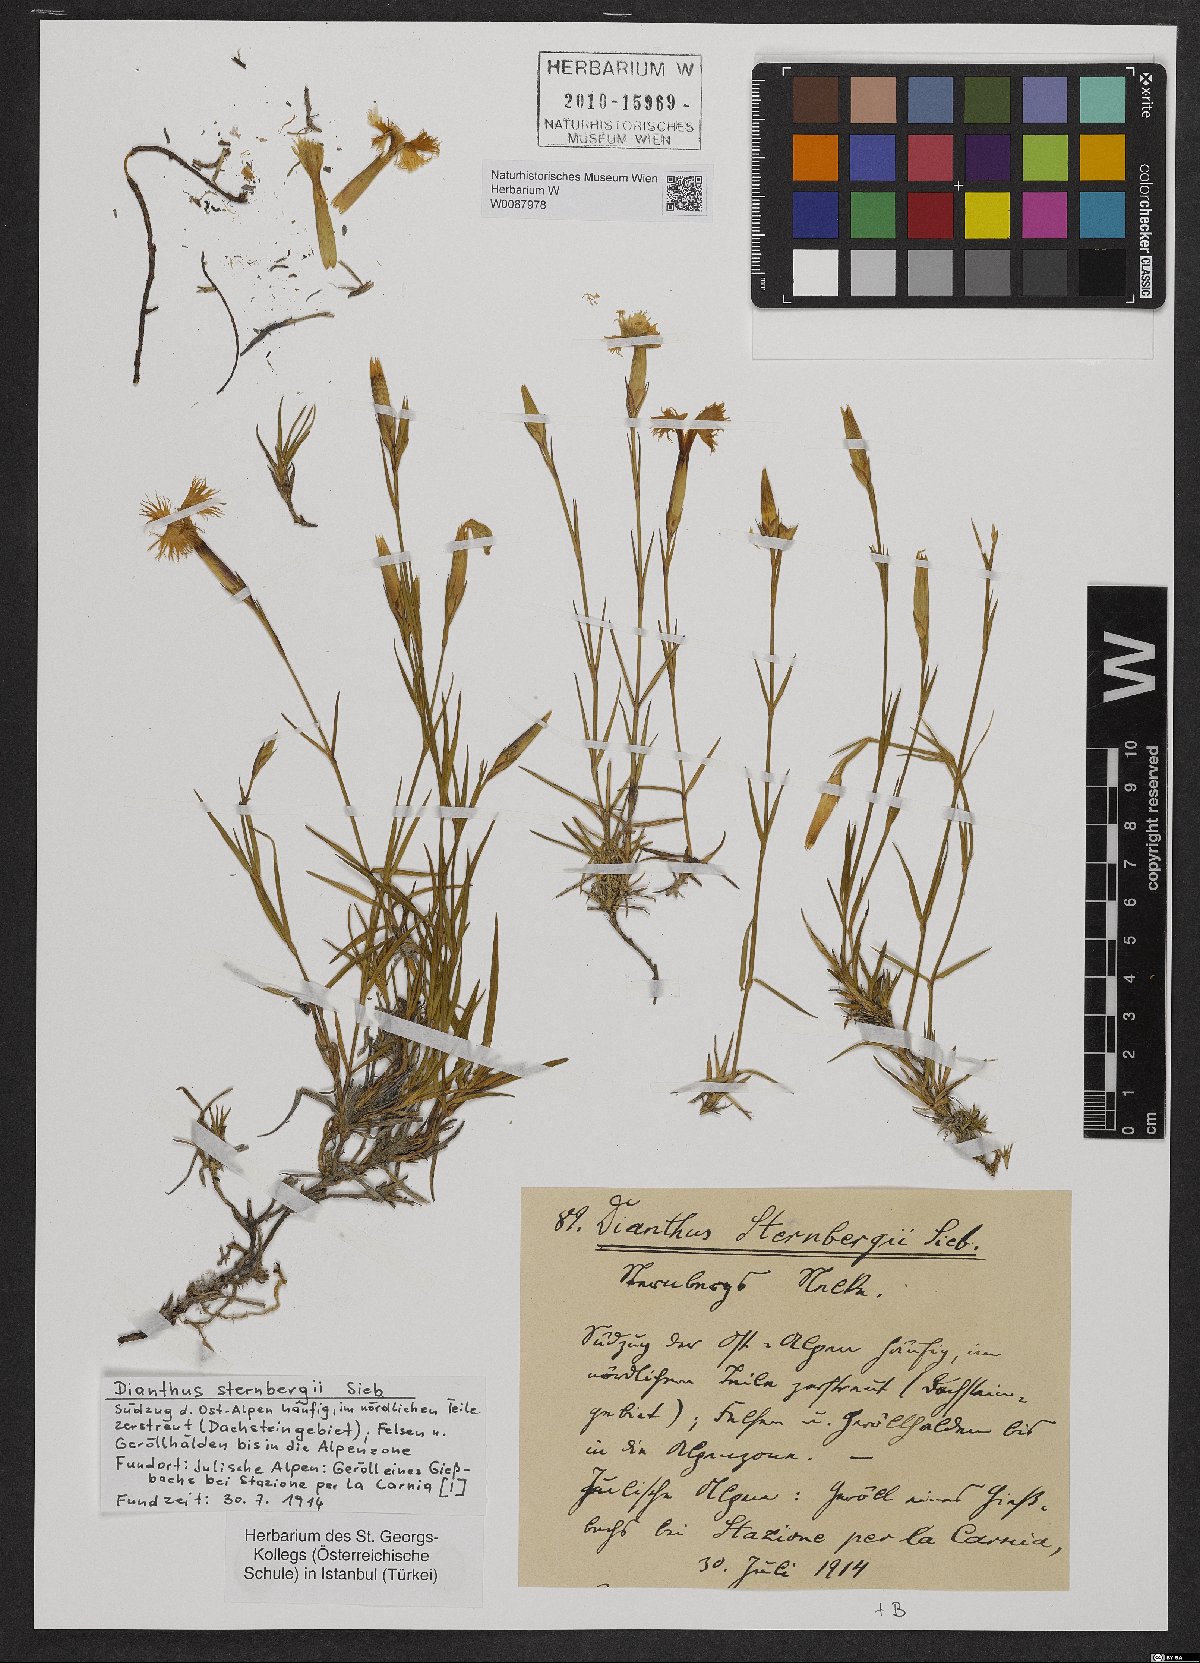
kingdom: Plantae
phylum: Tracheophyta
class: Magnoliopsida
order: Caryophyllales
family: Caryophyllaceae
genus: Dianthus
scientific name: Dianthus sternbergii
